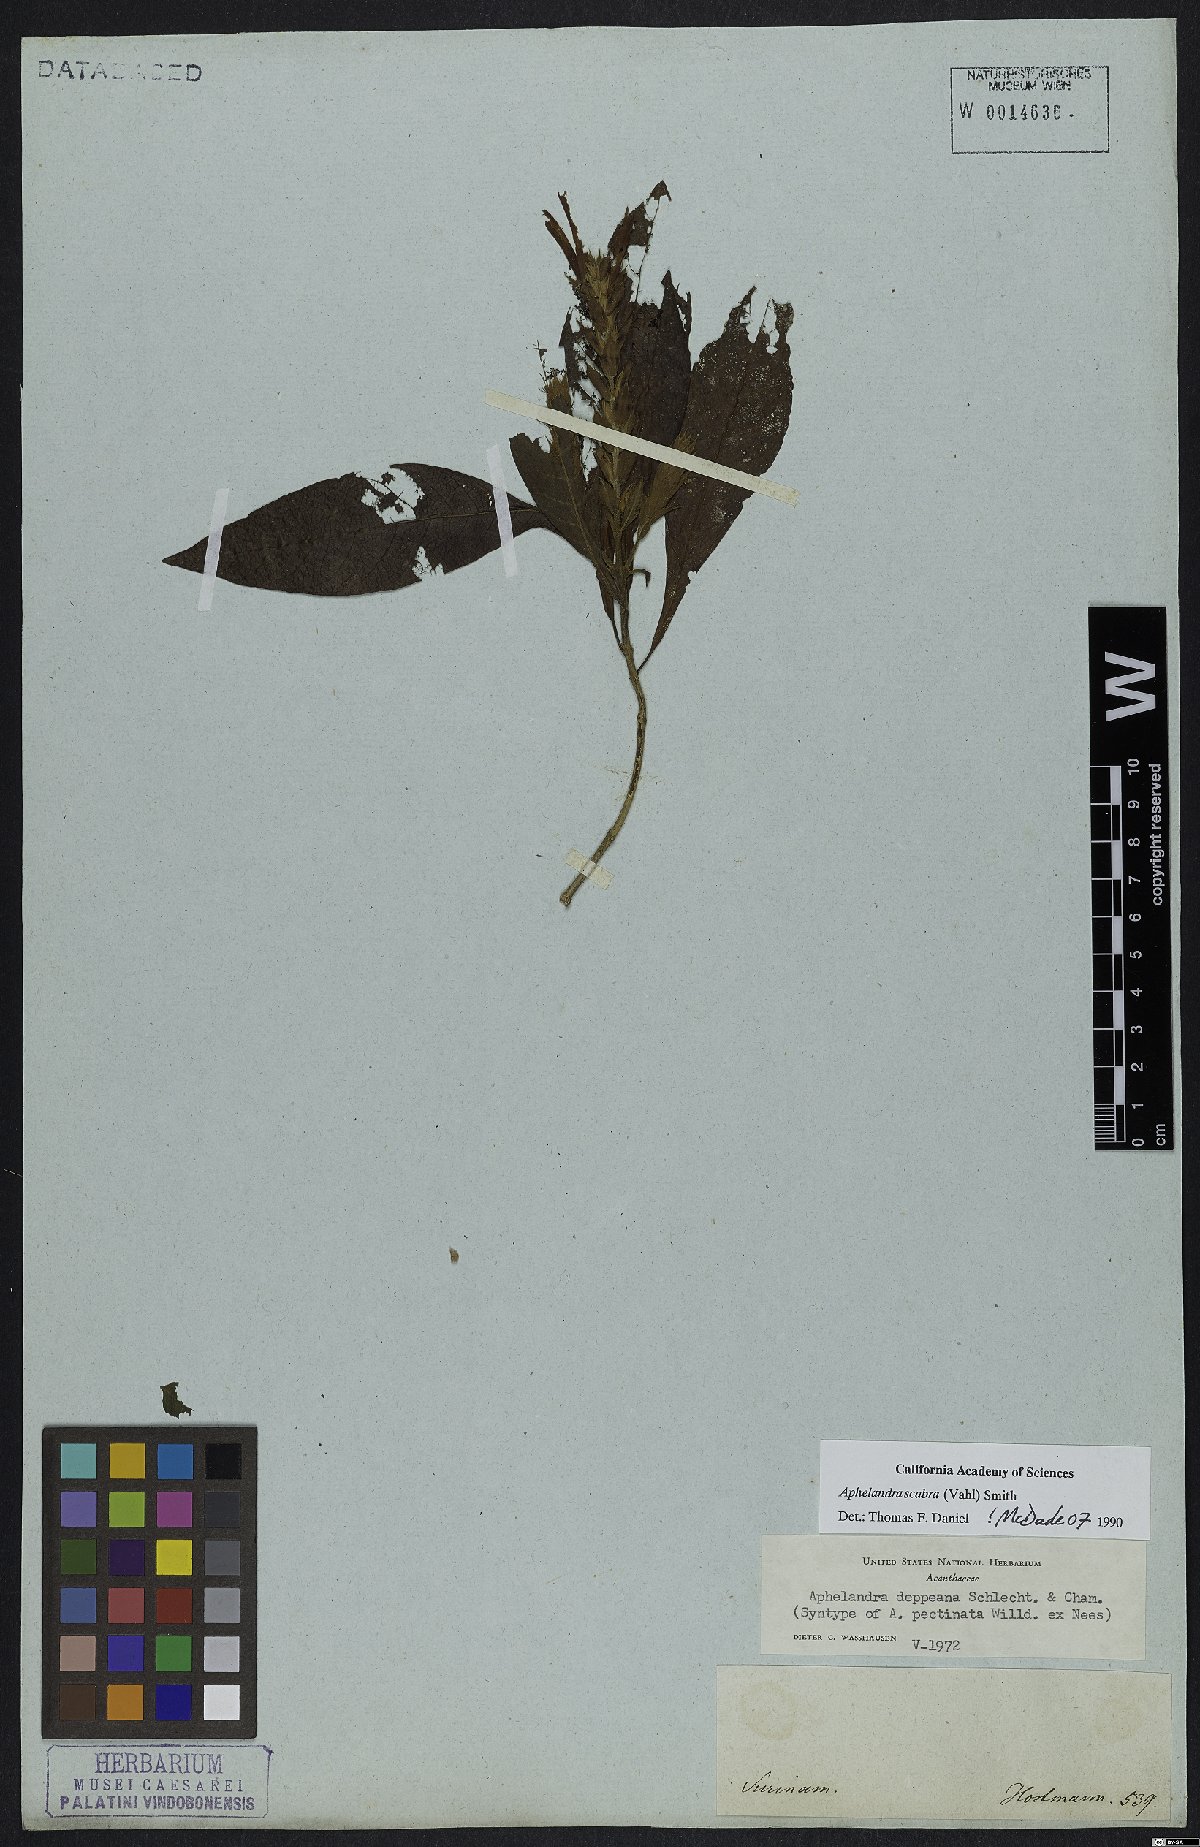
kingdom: Plantae
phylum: Tracheophyta
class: Magnoliopsida
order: Lamiales
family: Acanthaceae
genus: Aphelandra
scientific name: Aphelandra scabra
